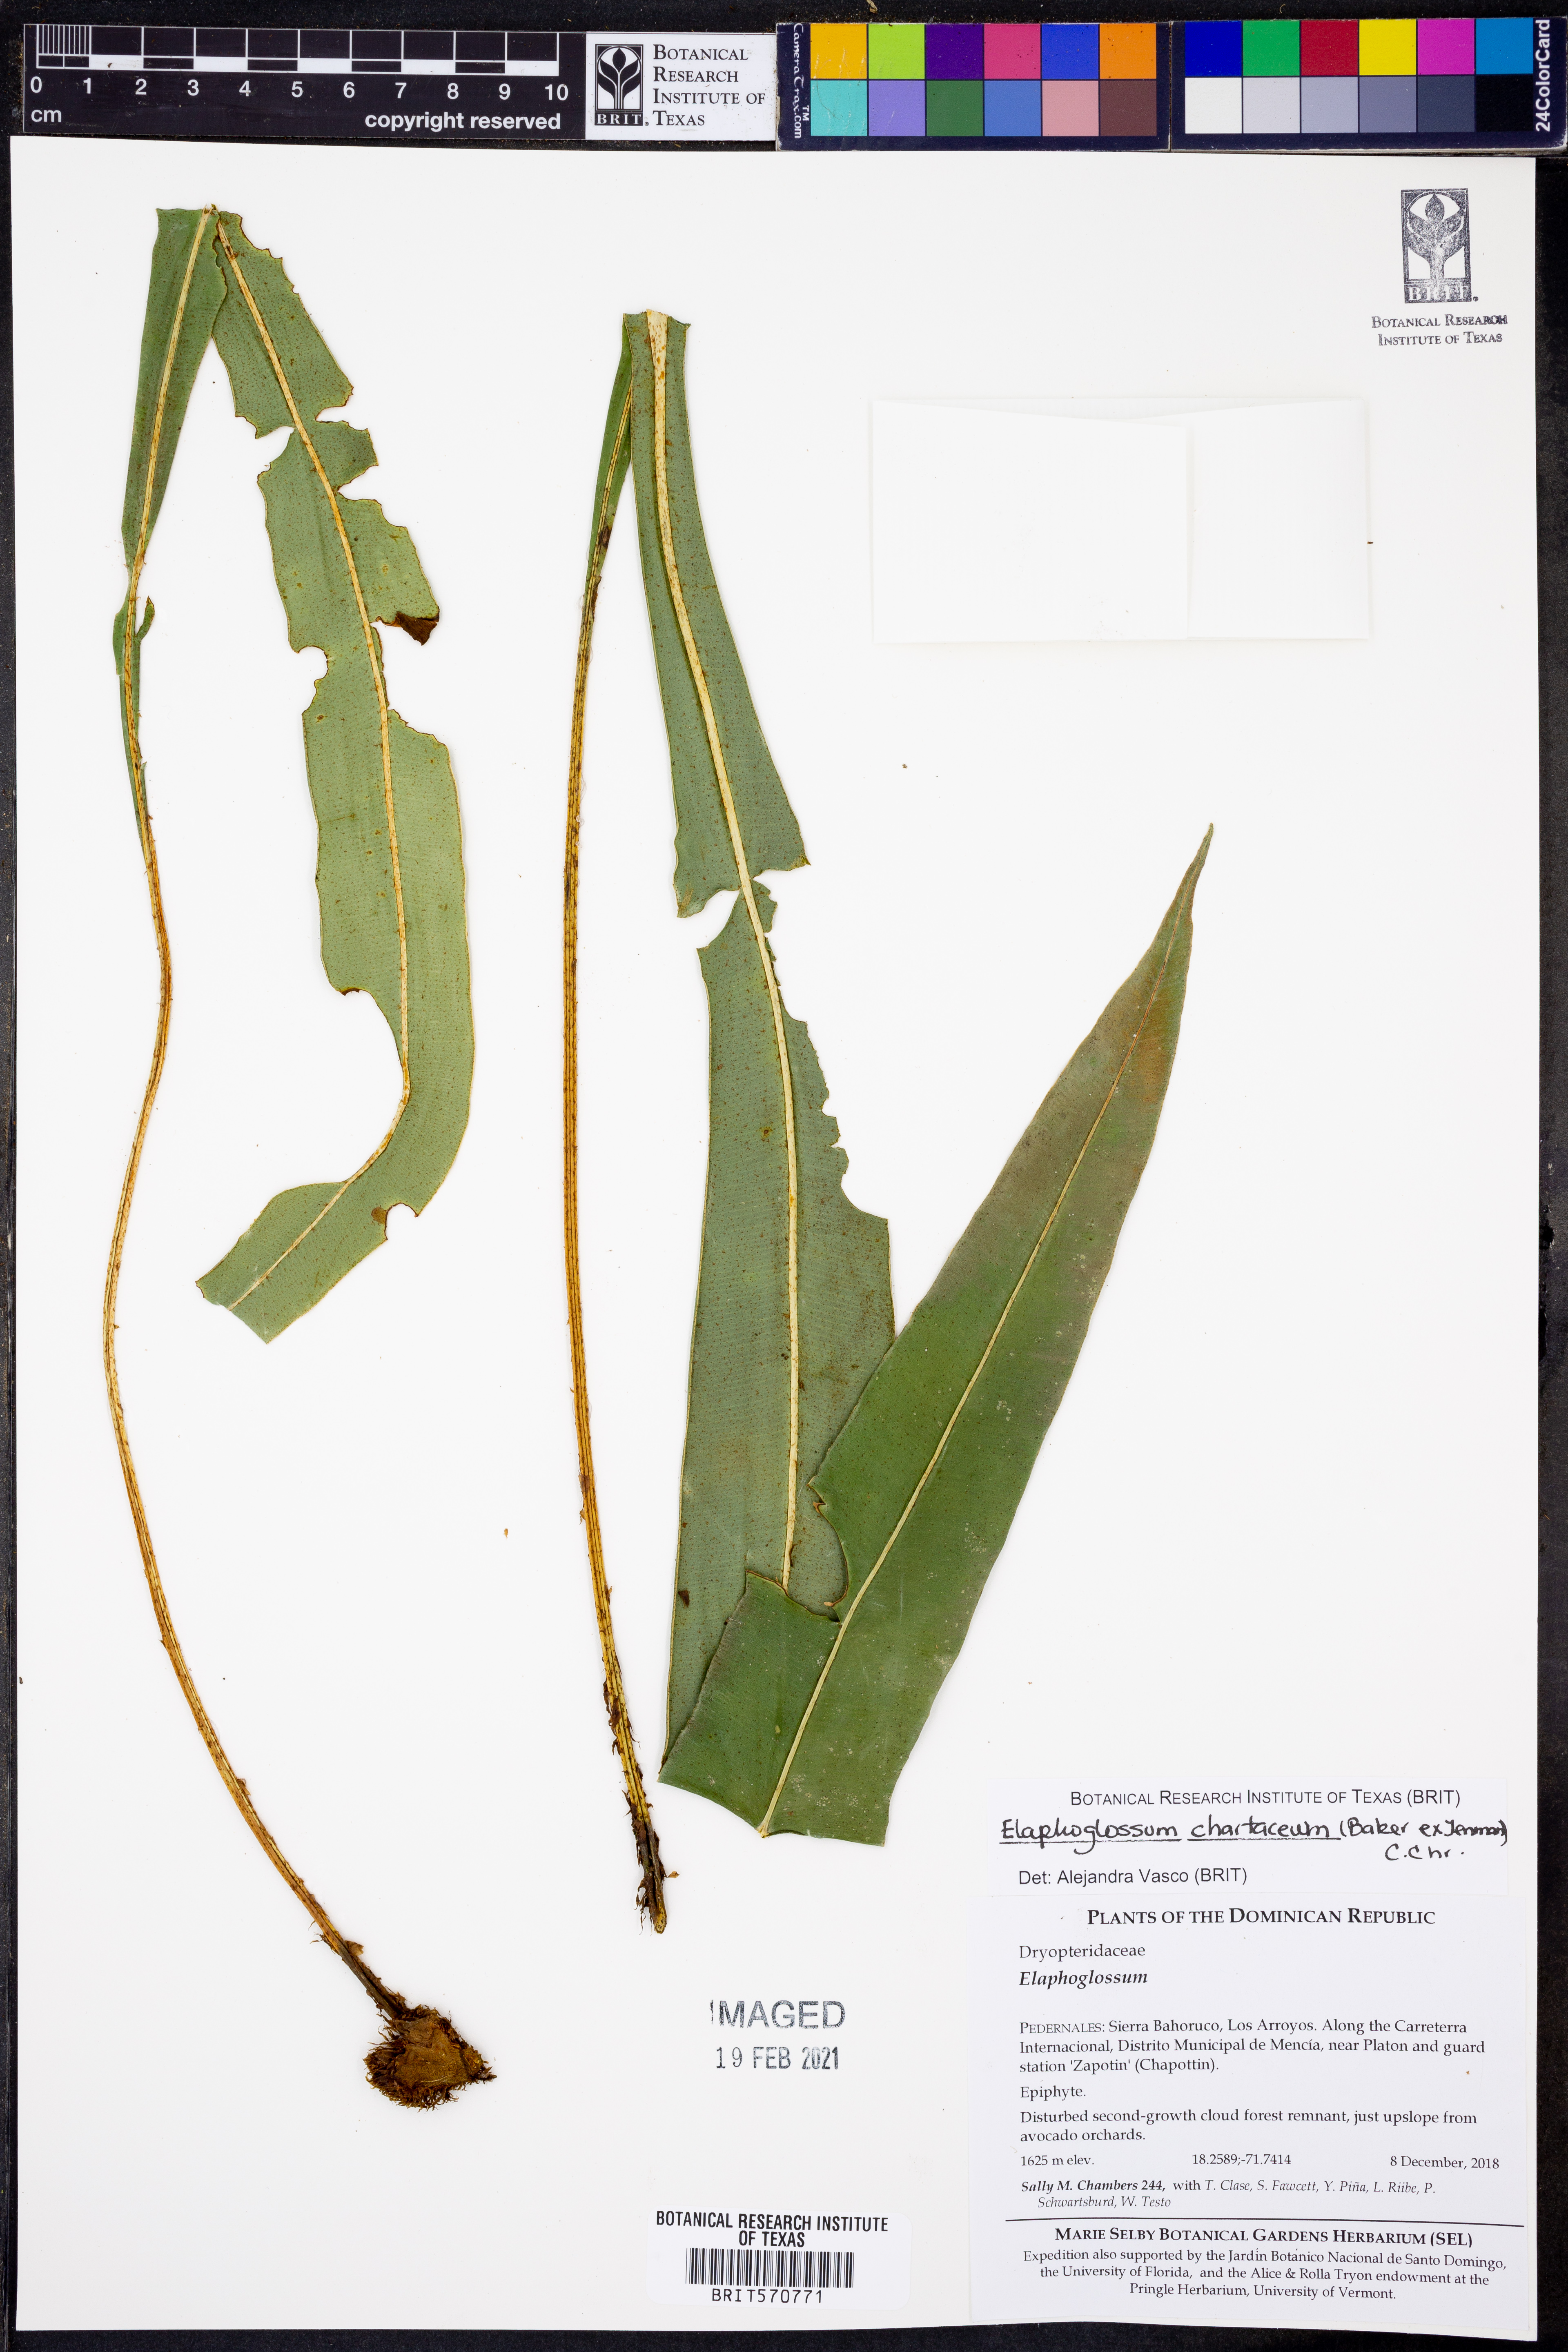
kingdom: Plantae
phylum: Tracheophyta
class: Polypodiopsida
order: Polypodiales
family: Dryopteridaceae
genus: Elaphoglossum
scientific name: Elaphoglossum chartaceum
